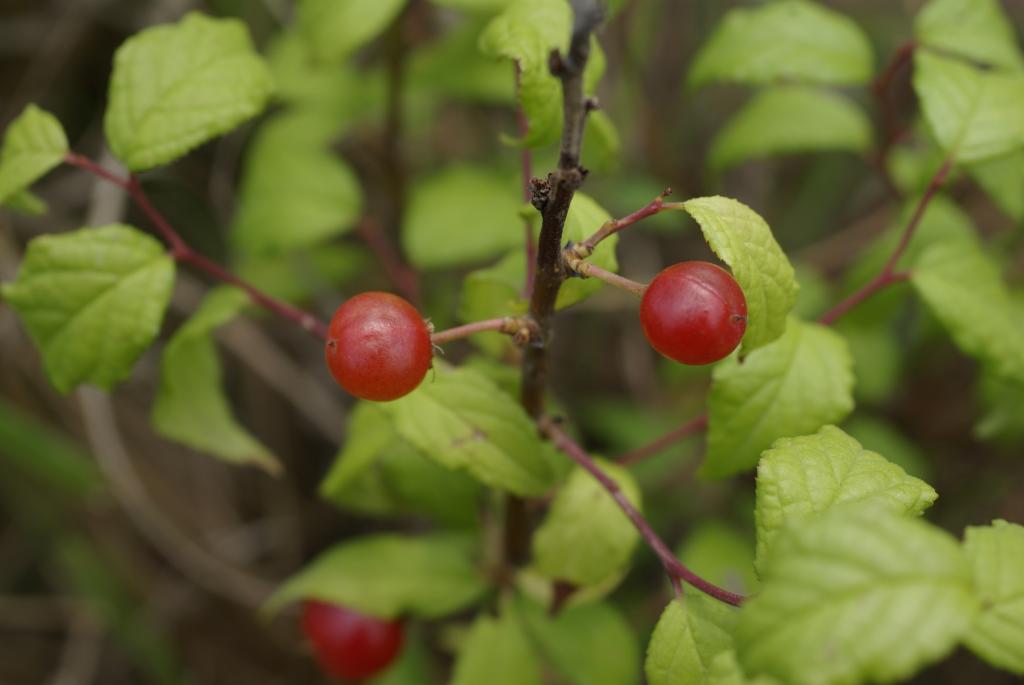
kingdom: Plantae
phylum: Tracheophyta
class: Magnoliopsida
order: Rosales
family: Rosaceae
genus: Prunus
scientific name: Prunus pogonostyla
